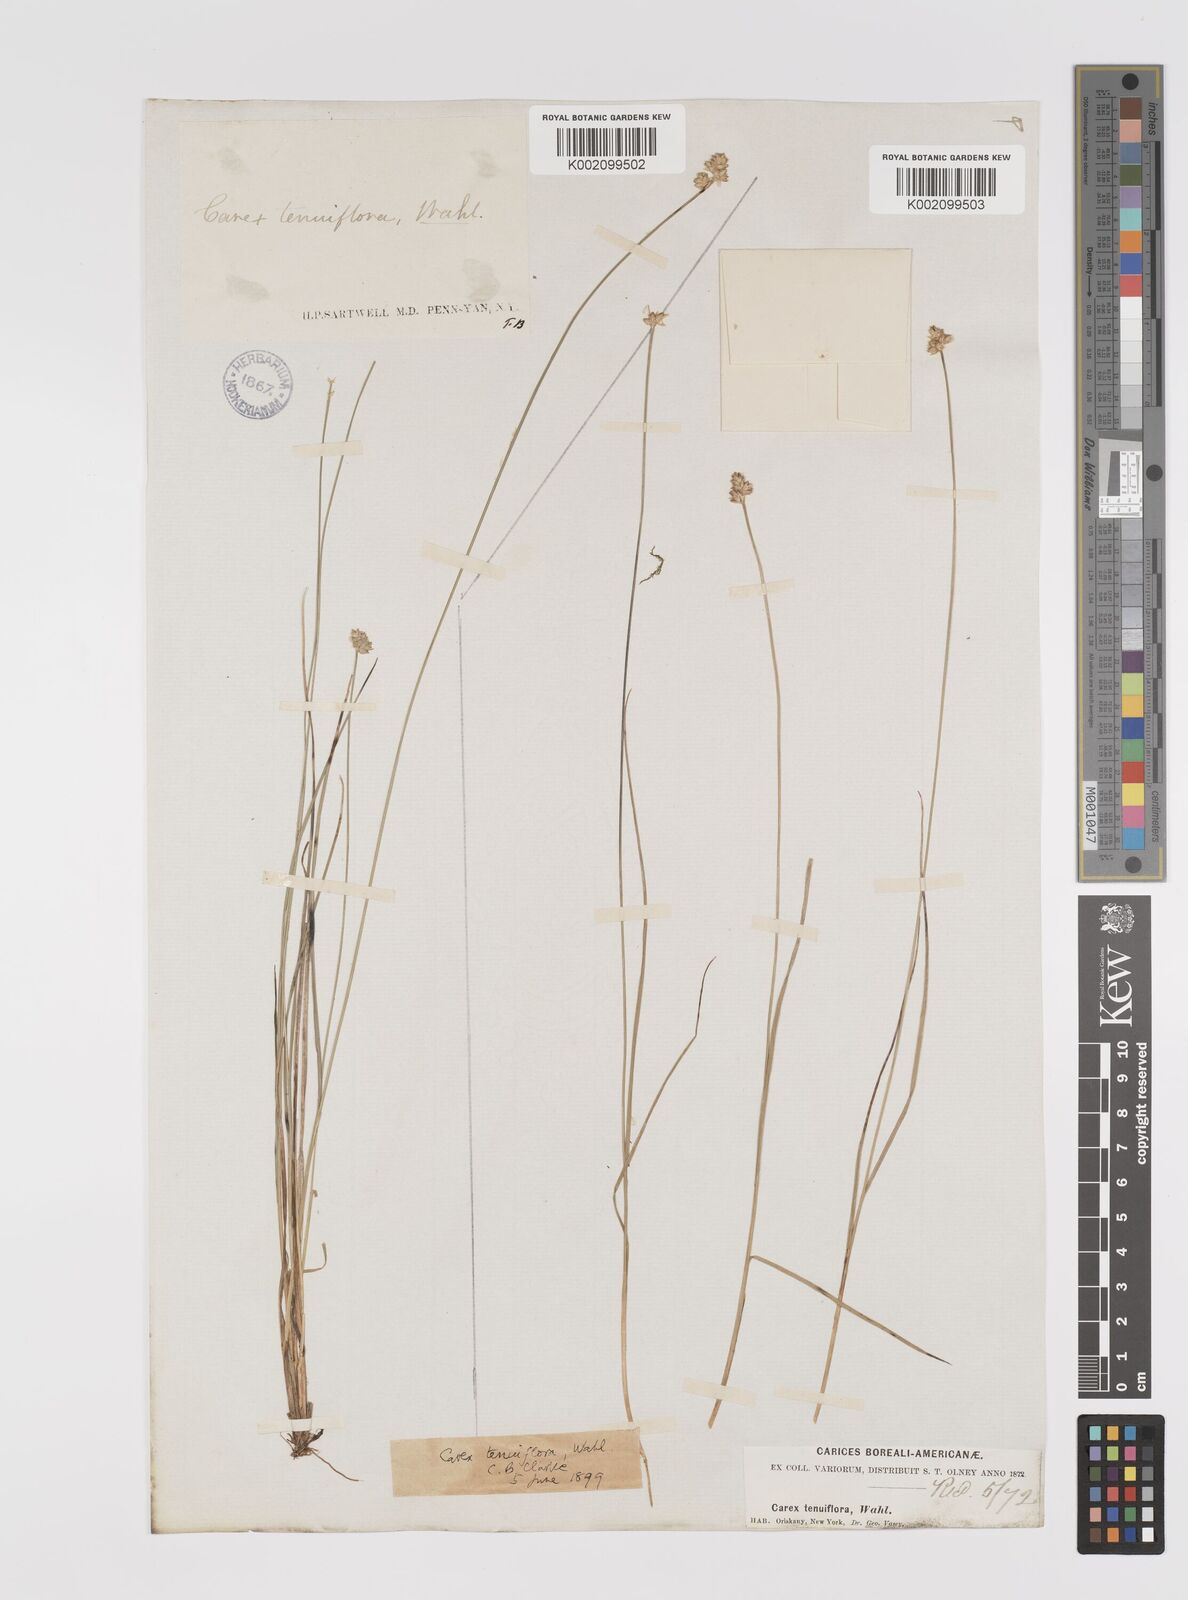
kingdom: Plantae
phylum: Tracheophyta
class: Liliopsida
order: Poales
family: Cyperaceae
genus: Carex
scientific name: Carex tenuiflora
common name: Sparse-flowered sedge
